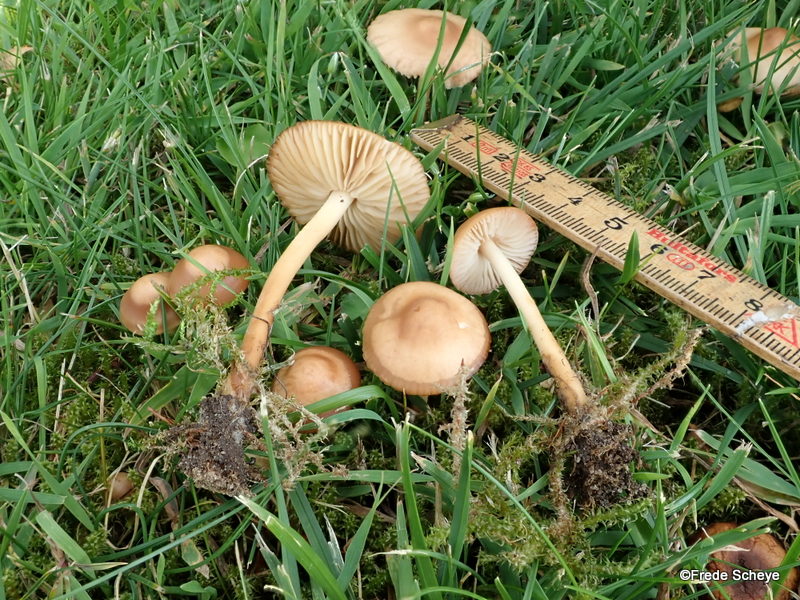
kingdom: Fungi
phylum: Basidiomycota
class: Agaricomycetes
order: Agaricales
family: Marasmiaceae
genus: Marasmius
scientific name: Marasmius oreades
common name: elledans-bruskhat
